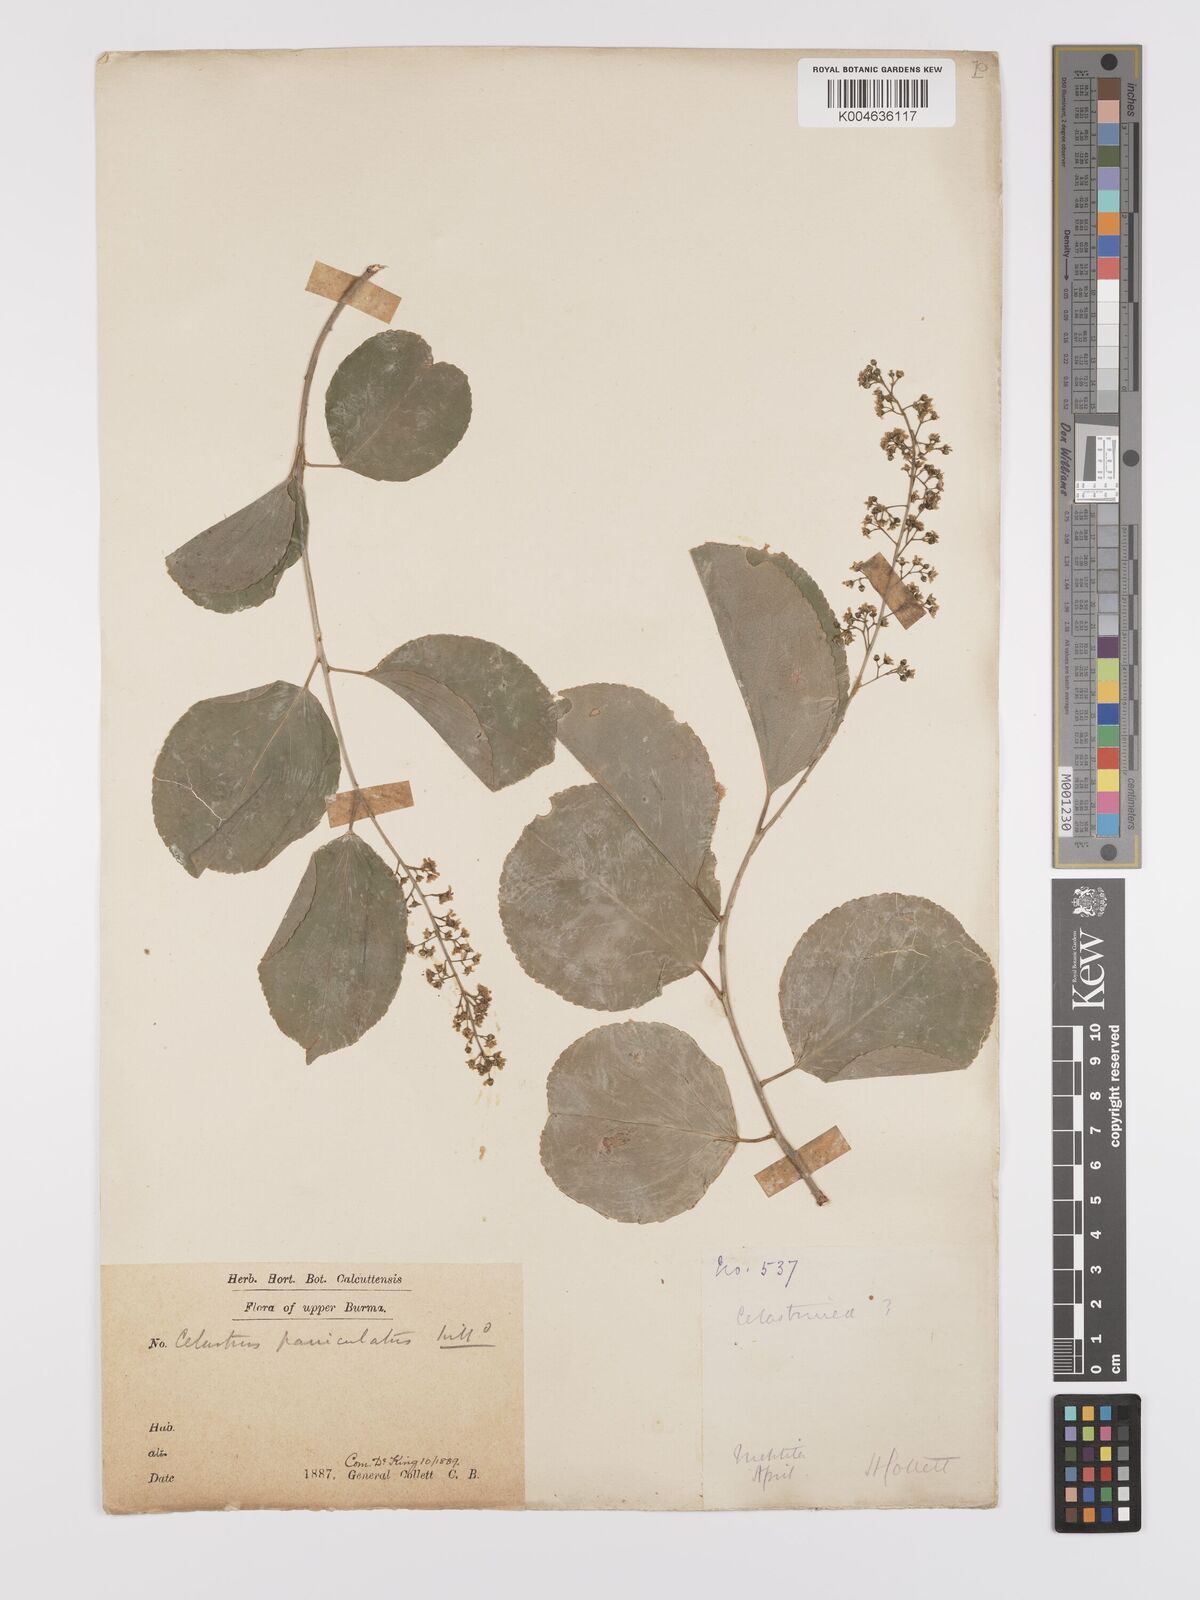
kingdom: Plantae
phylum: Tracheophyta
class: Magnoliopsida
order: Celastrales
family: Celastraceae
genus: Celastrus
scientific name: Celastrus paniculatus
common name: Oriental bittersweet; staff vine
